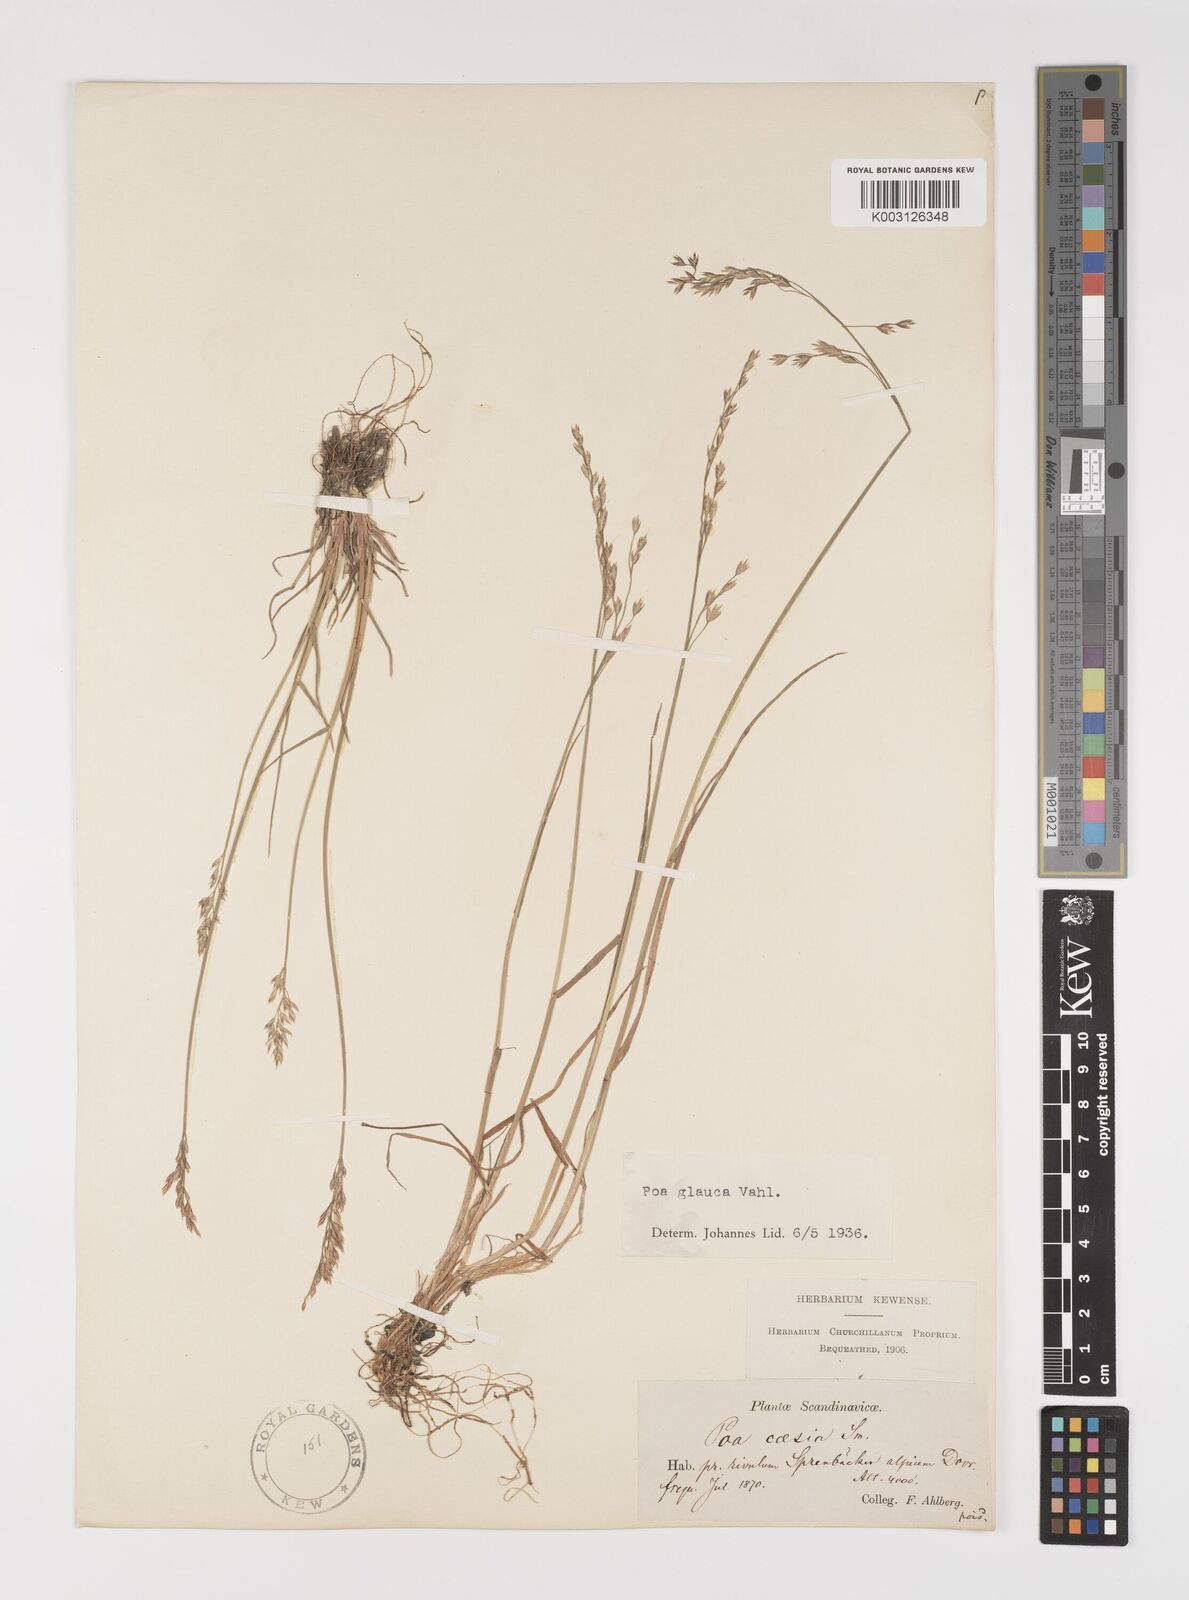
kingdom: Plantae
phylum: Tracheophyta
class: Liliopsida
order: Poales
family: Poaceae
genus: Poa
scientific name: Poa glauca
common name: Glaucous bluegrass
